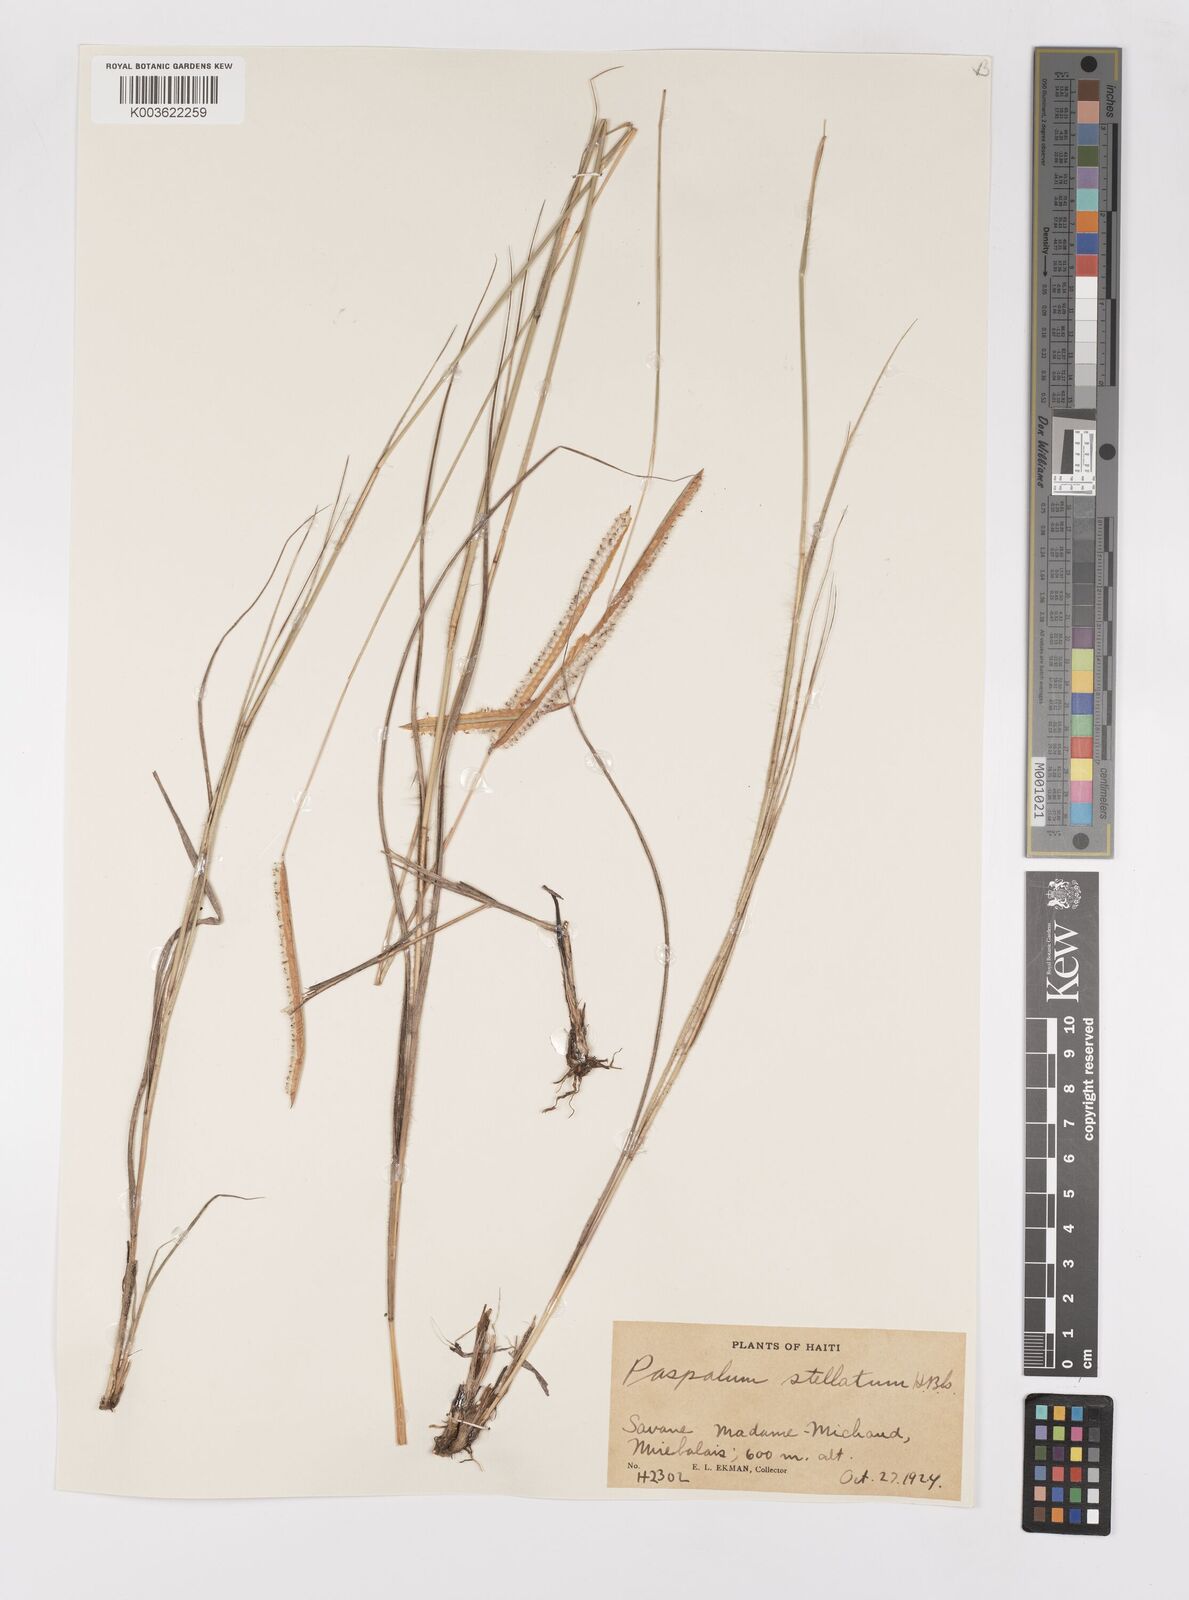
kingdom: Plantae
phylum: Tracheophyta
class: Liliopsida
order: Poales
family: Poaceae
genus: Paspalum
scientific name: Paspalum stellatum
